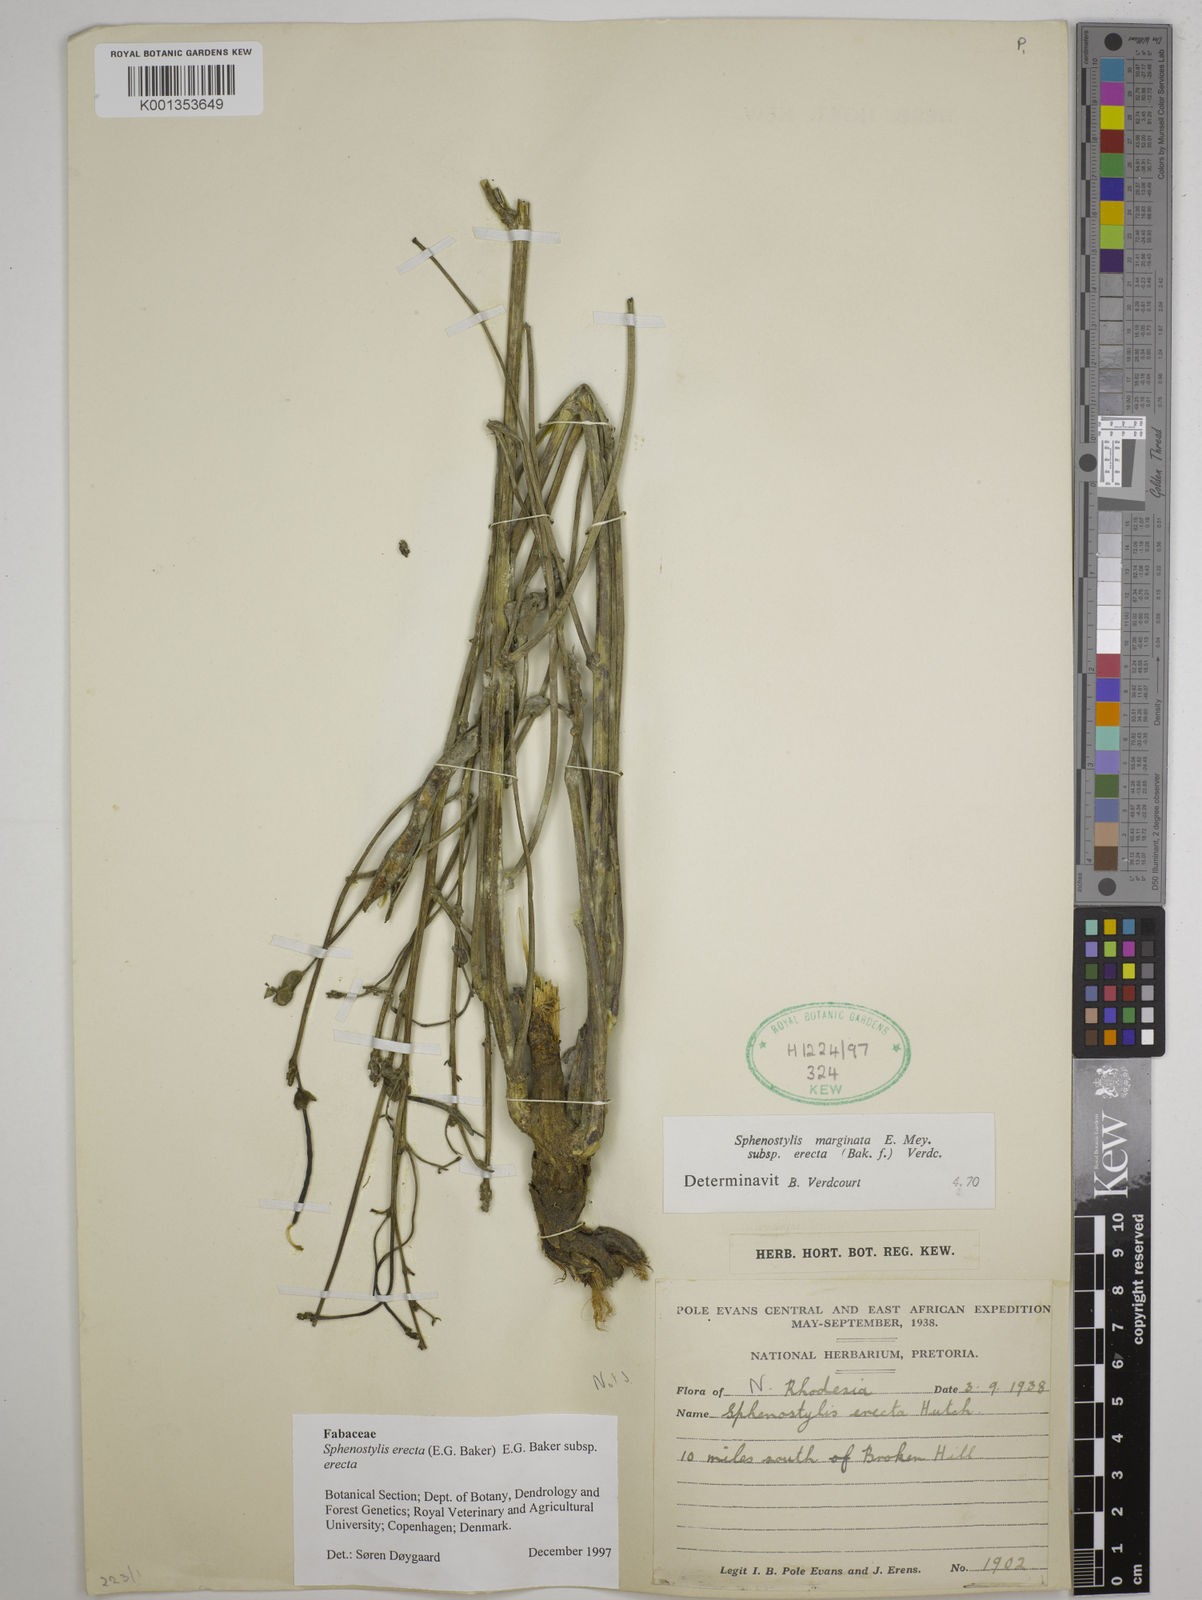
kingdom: Plantae
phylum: Tracheophyta
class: Magnoliopsida
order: Fabales
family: Fabaceae
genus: Sphenostylis
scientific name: Sphenostylis erecta
